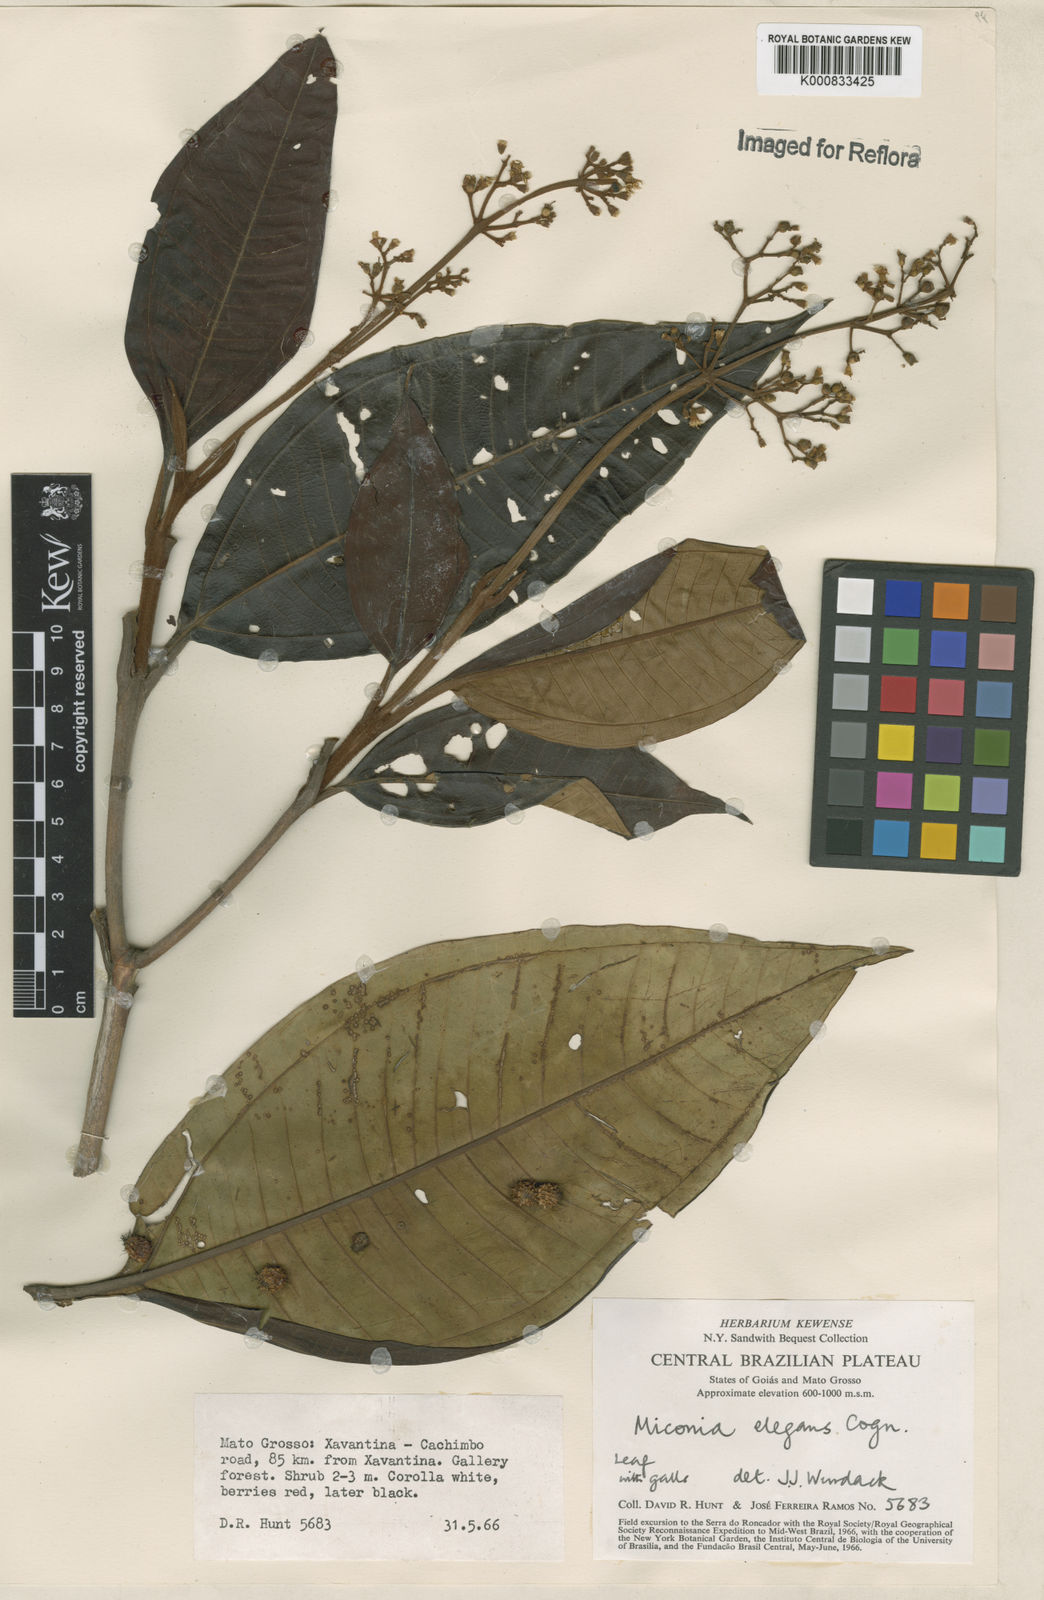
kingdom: Plantae
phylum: Tracheophyta
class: Magnoliopsida
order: Myrtales
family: Melastomataceae
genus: Miconia
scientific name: Miconia elegans
